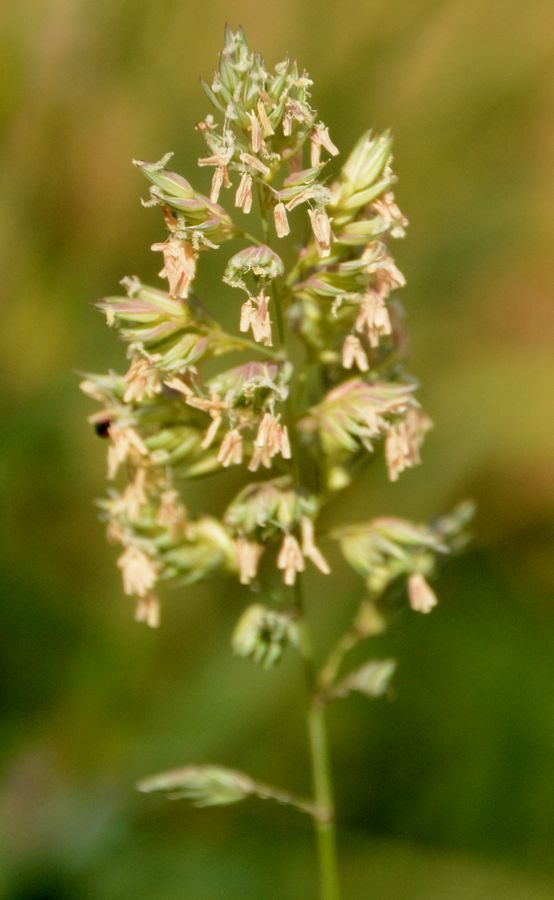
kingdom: Plantae
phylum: Tracheophyta
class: Liliopsida
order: Poales
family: Poaceae
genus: Phalaris
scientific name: Phalaris arundinacea
